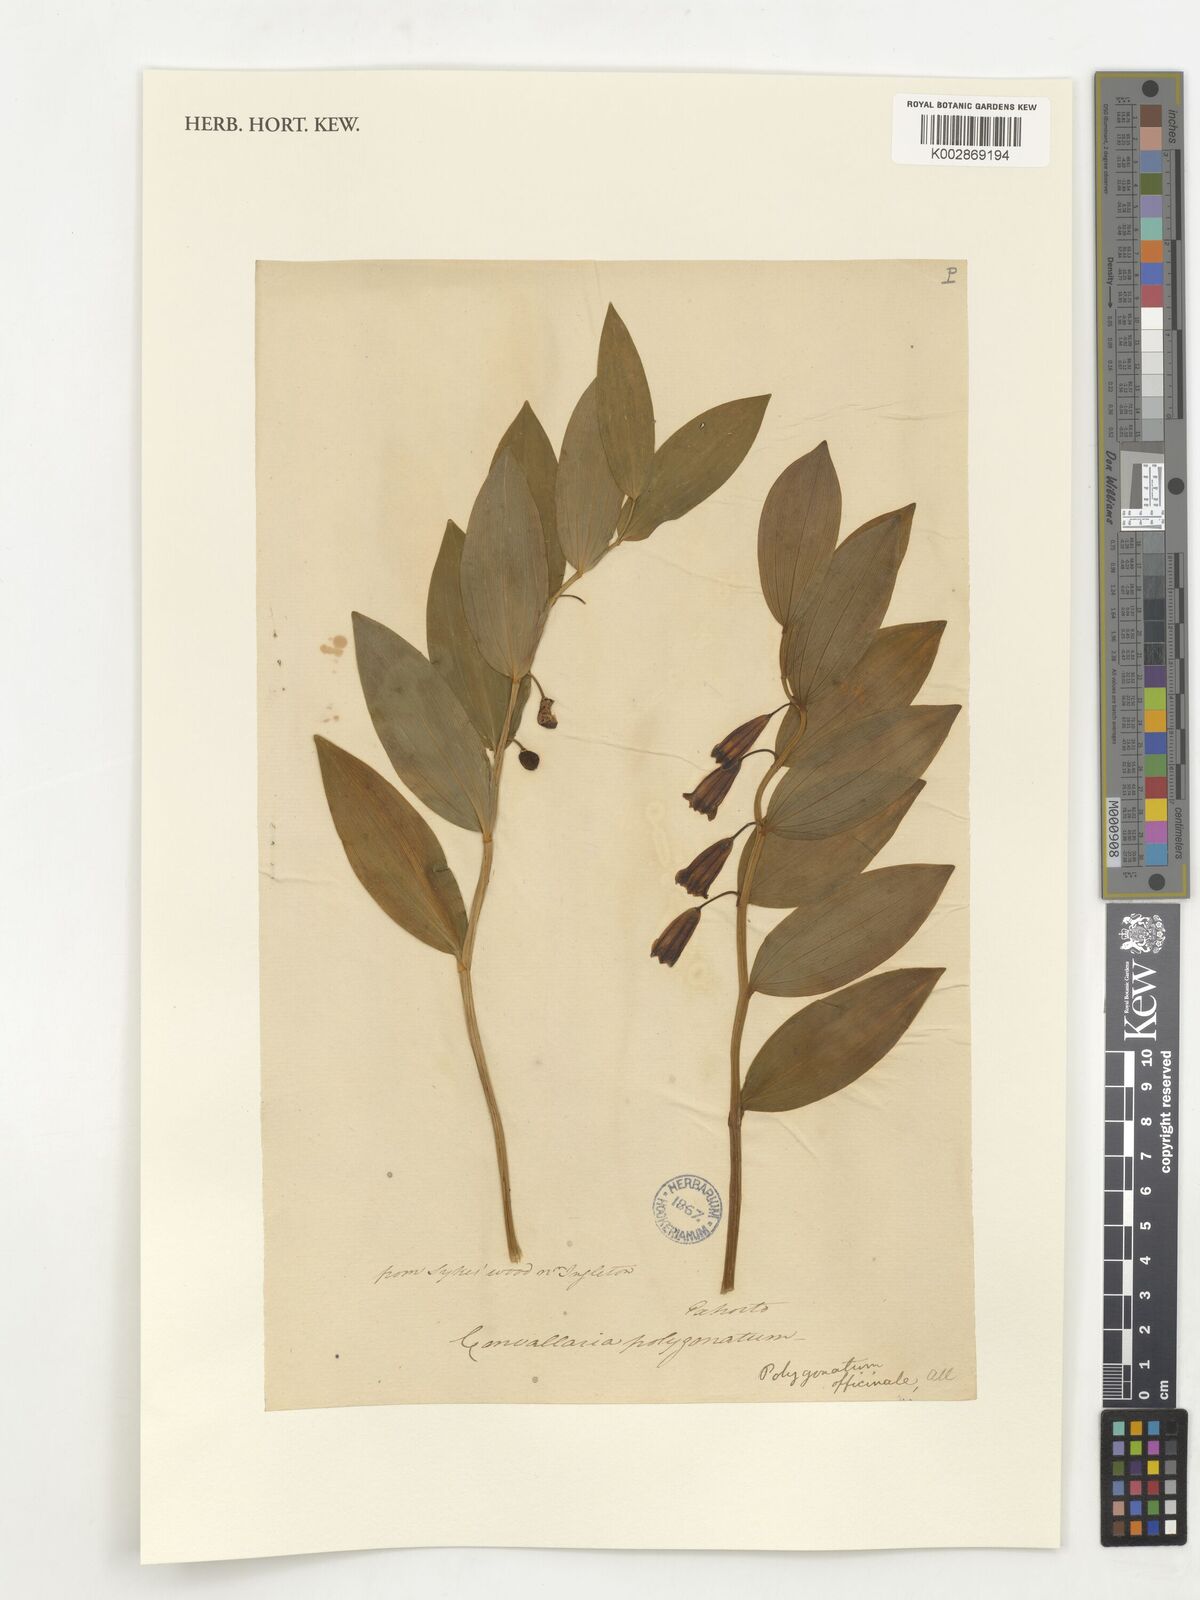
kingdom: Plantae
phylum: Tracheophyta
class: Liliopsida
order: Asparagales
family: Asparagaceae
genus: Polygonatum
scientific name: Polygonatum odoratum
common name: Angular solomon's-seal
